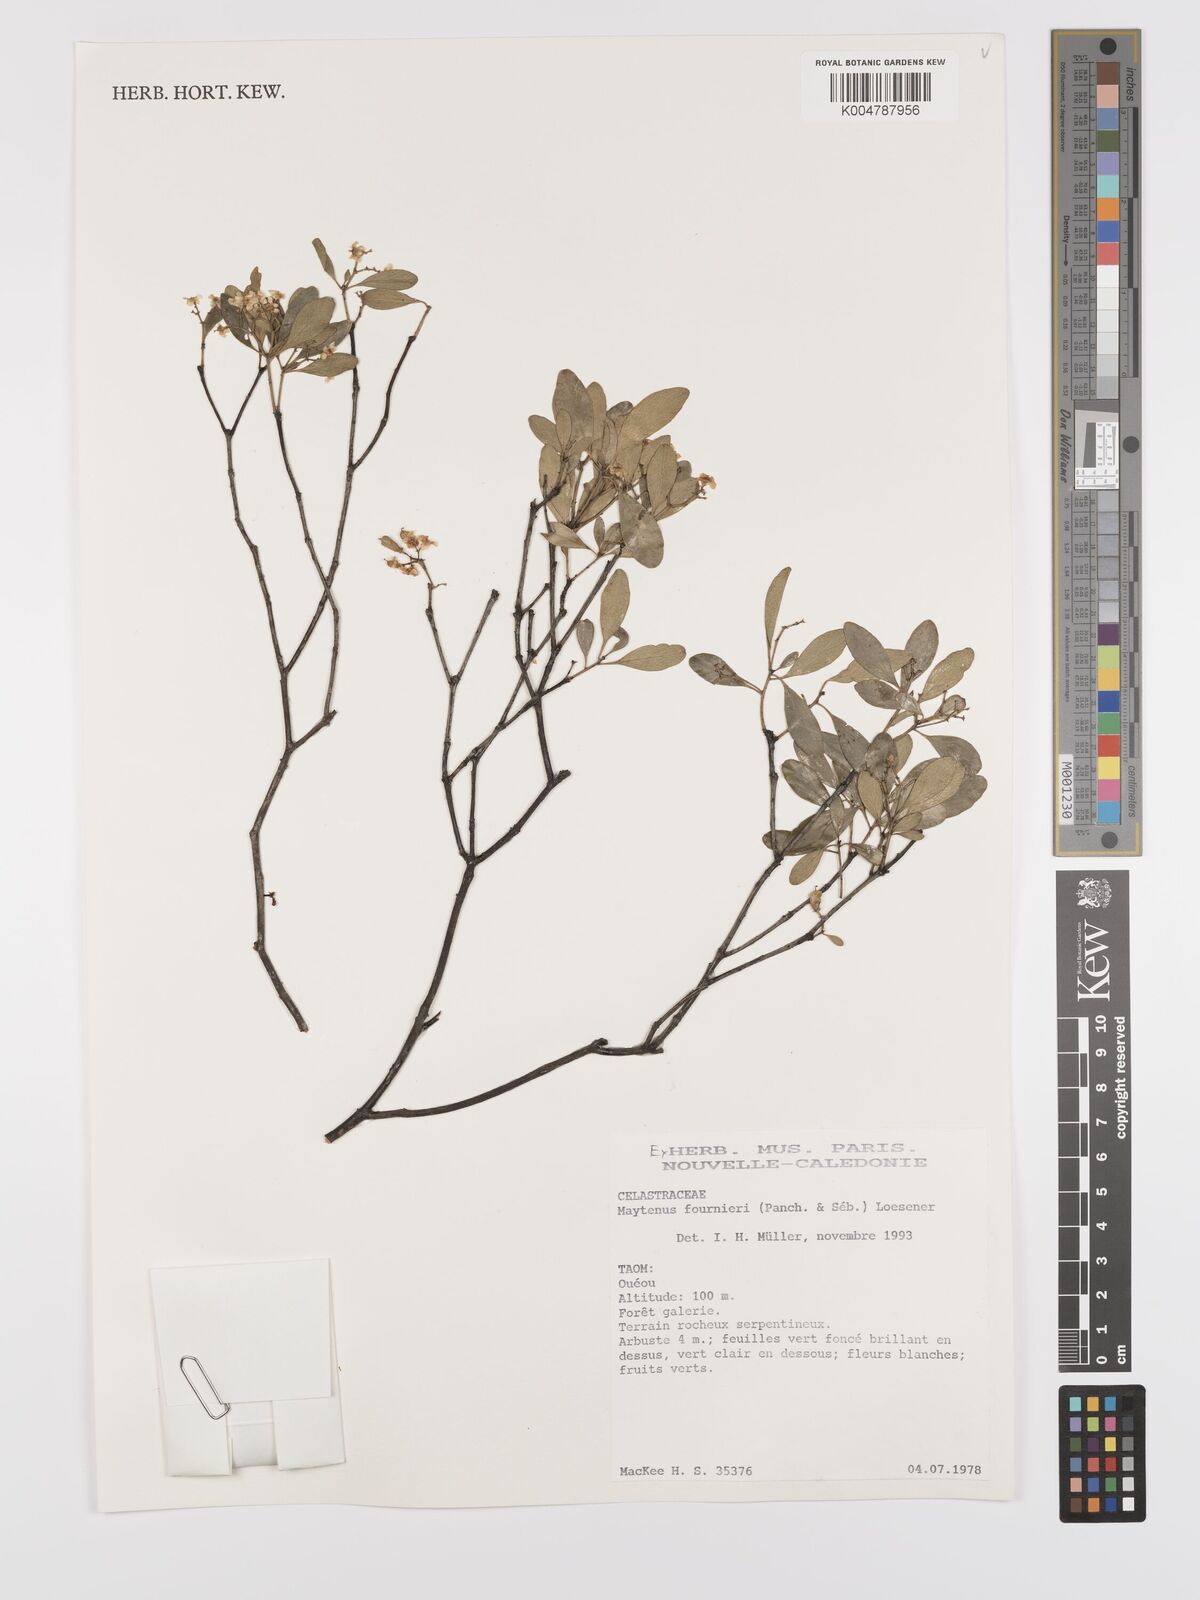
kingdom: Plantae
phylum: Tracheophyta
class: Magnoliopsida
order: Celastrales
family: Celastraceae
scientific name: Celastraceae
